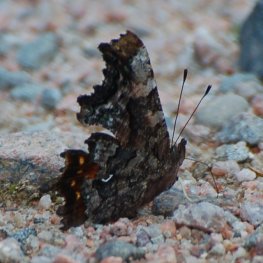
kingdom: Animalia
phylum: Arthropoda
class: Insecta
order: Lepidoptera
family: Nymphalidae
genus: Polygonia
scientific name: Polygonia faunus
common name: Green Comma
